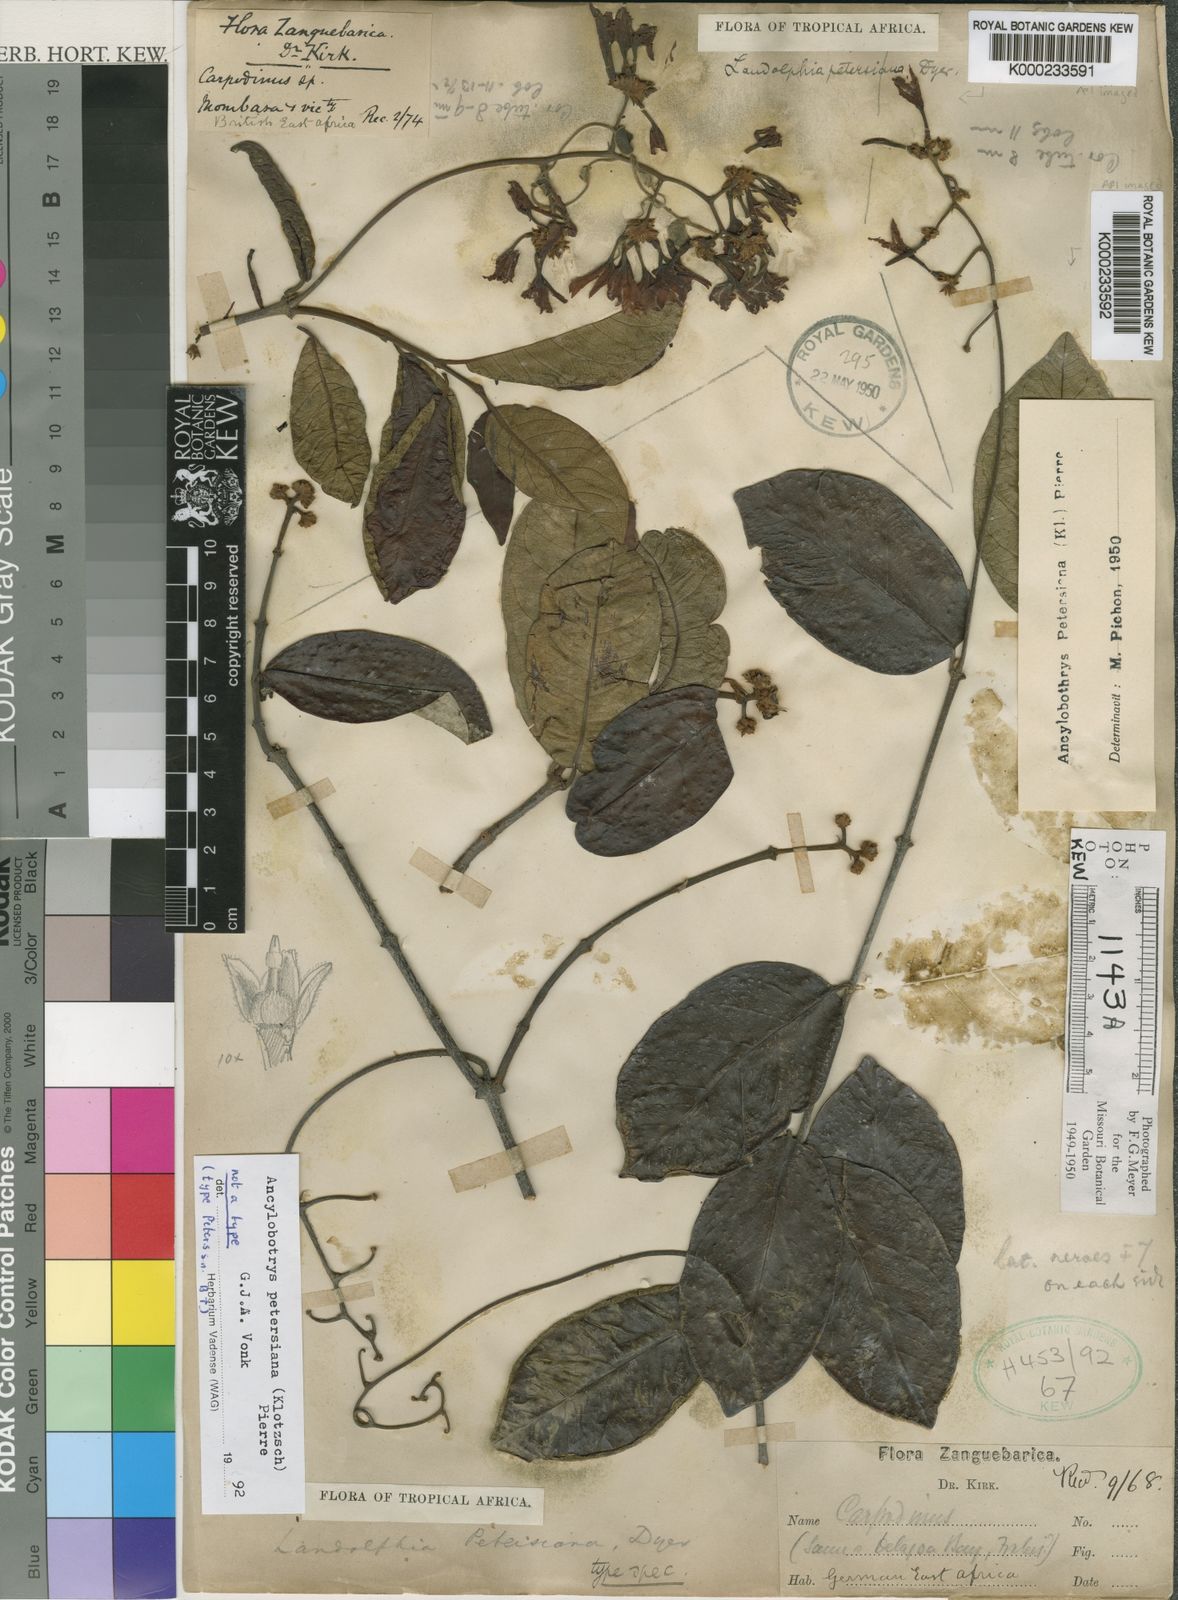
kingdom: Plantae
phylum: Tracheophyta
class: Magnoliopsida
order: Gentianales
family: Apocynaceae
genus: Ancylobothrys
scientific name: Ancylobothrys petersiana
